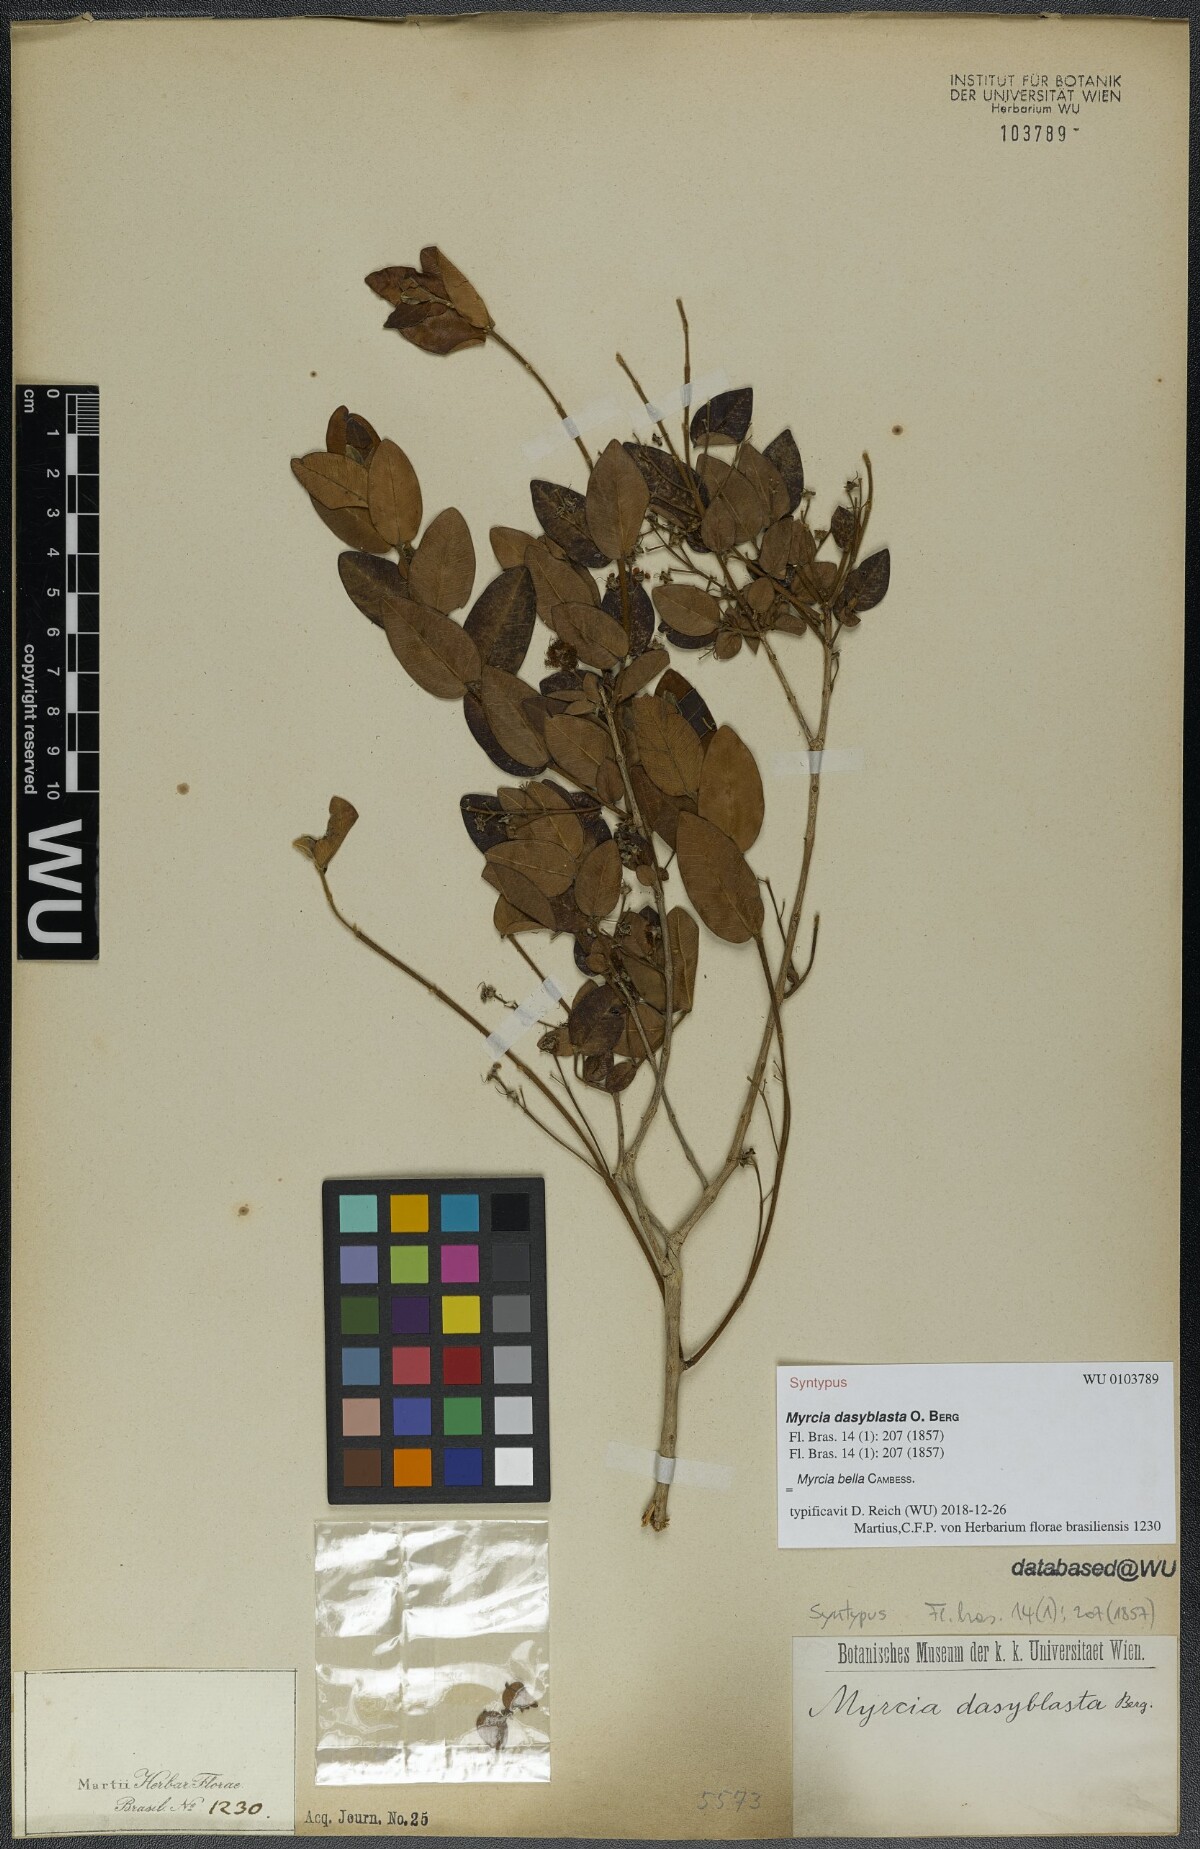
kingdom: Plantae
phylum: Tracheophyta
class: Magnoliopsida
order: Myrtales
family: Myrtaceae
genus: Myrcia
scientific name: Myrcia dasyblasta
